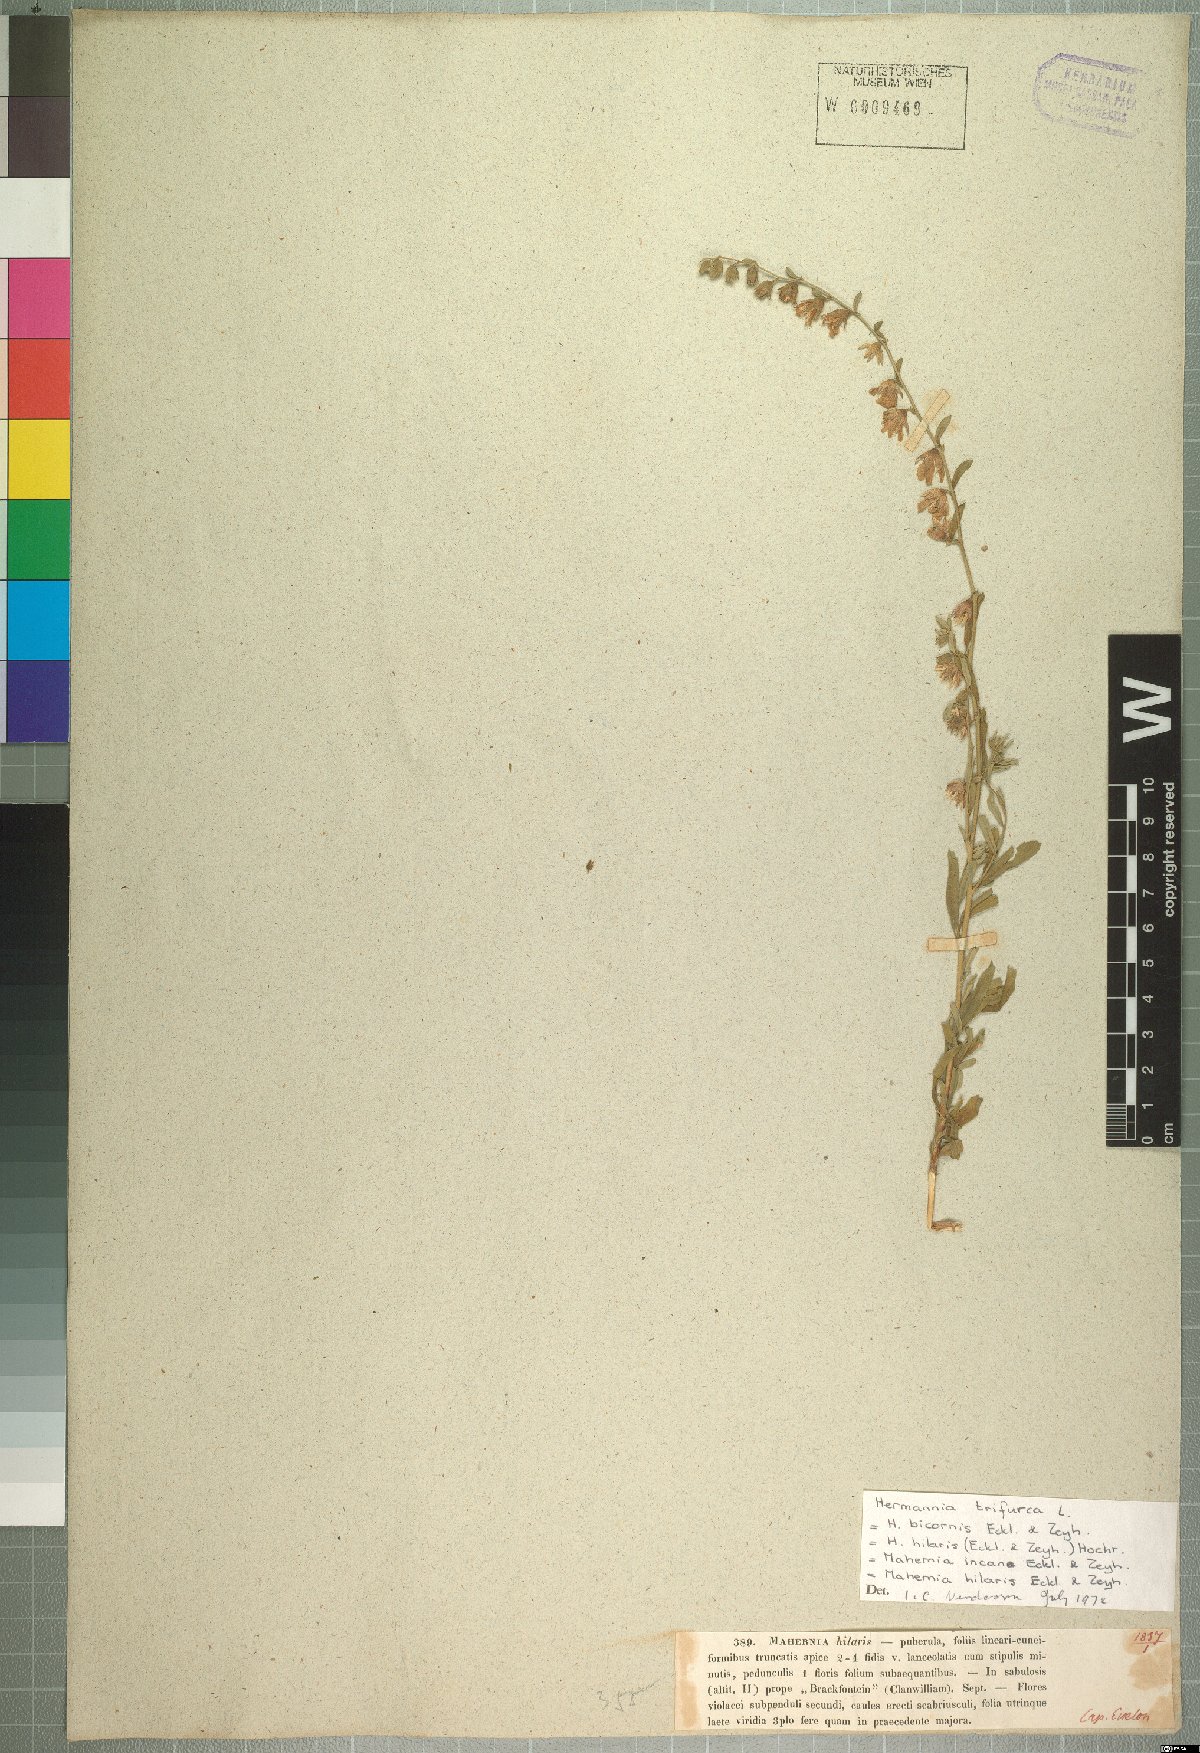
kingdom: Plantae
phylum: Tracheophyta
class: Magnoliopsida
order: Malvales
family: Malvaceae
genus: Hermannia
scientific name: Hermannia trifurca
